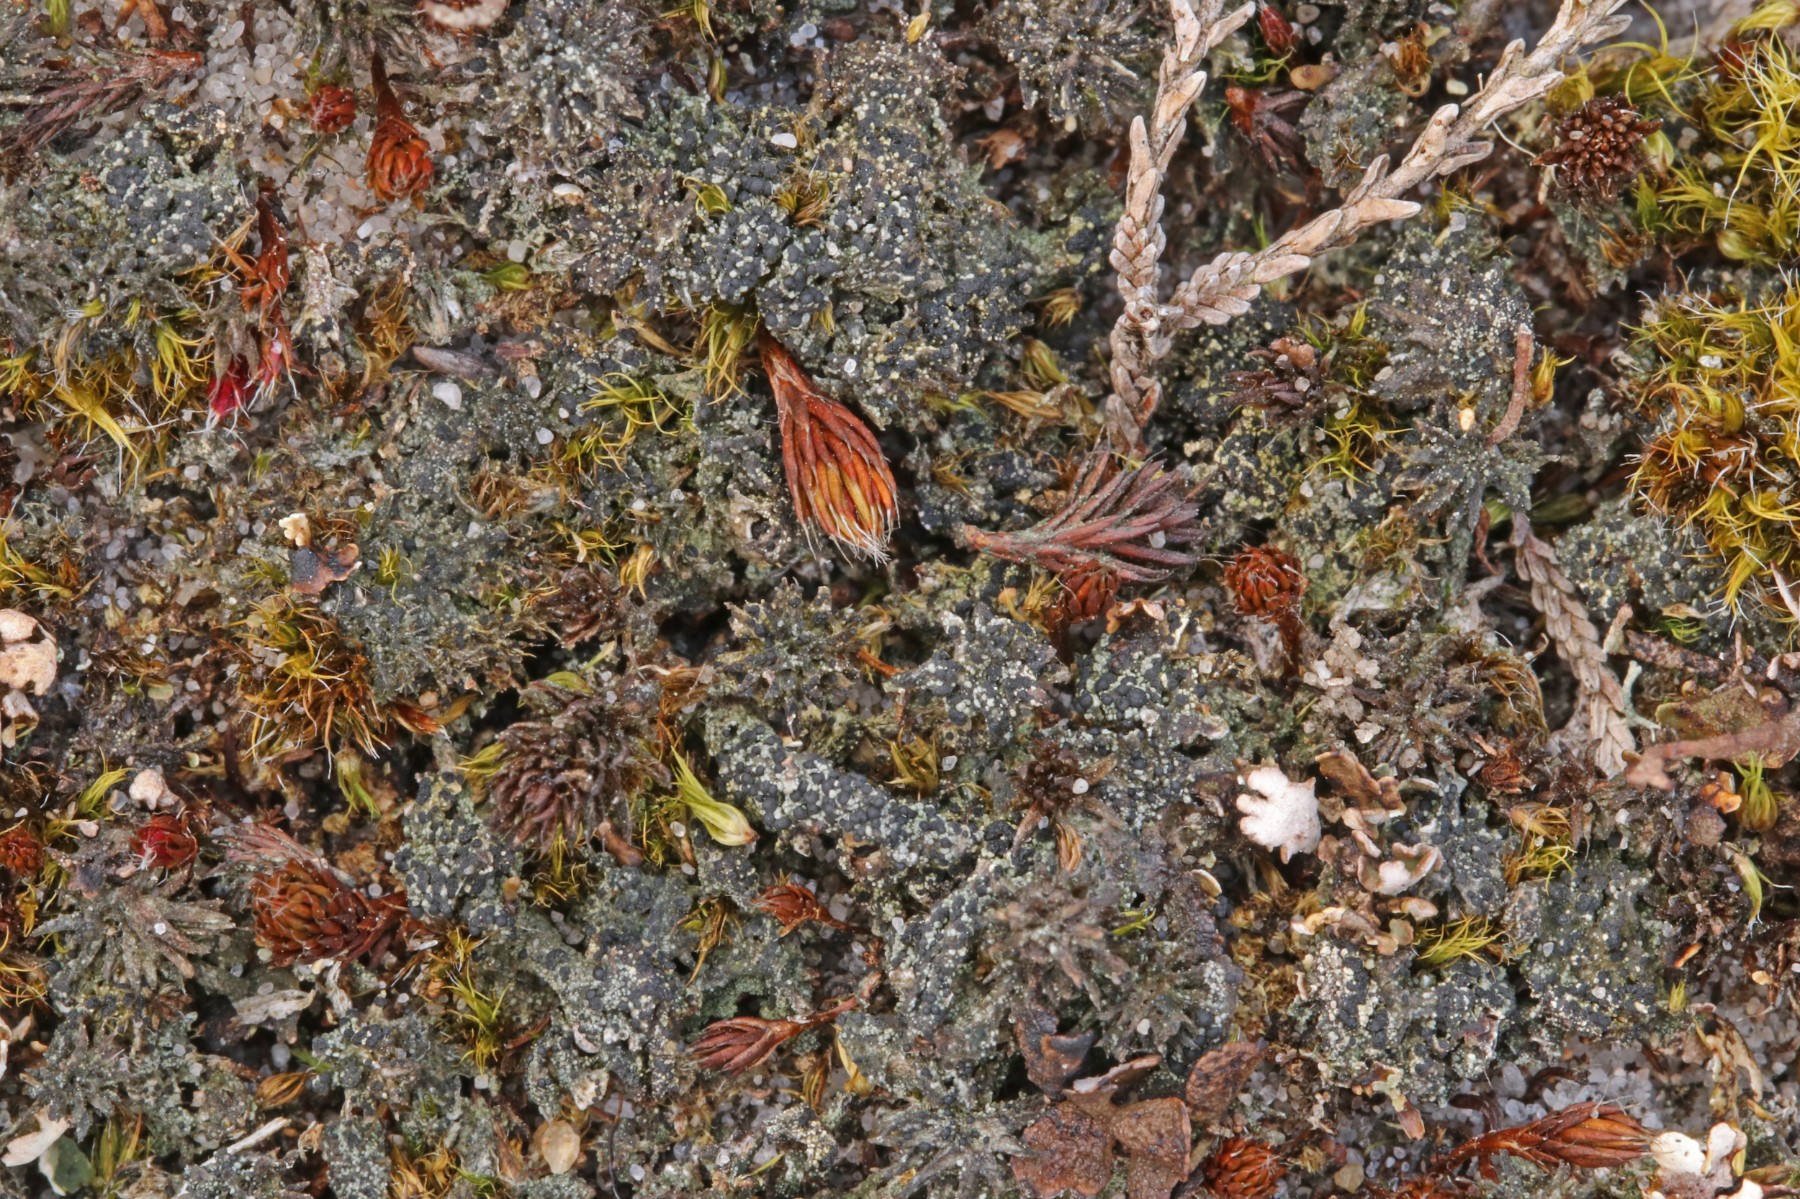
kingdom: Fungi
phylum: Ascomycota
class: Lecanoromycetes
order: Lecanorales
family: Byssolomataceae
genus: Micarea
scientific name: Micarea lignaria
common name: tørve-knaplav
